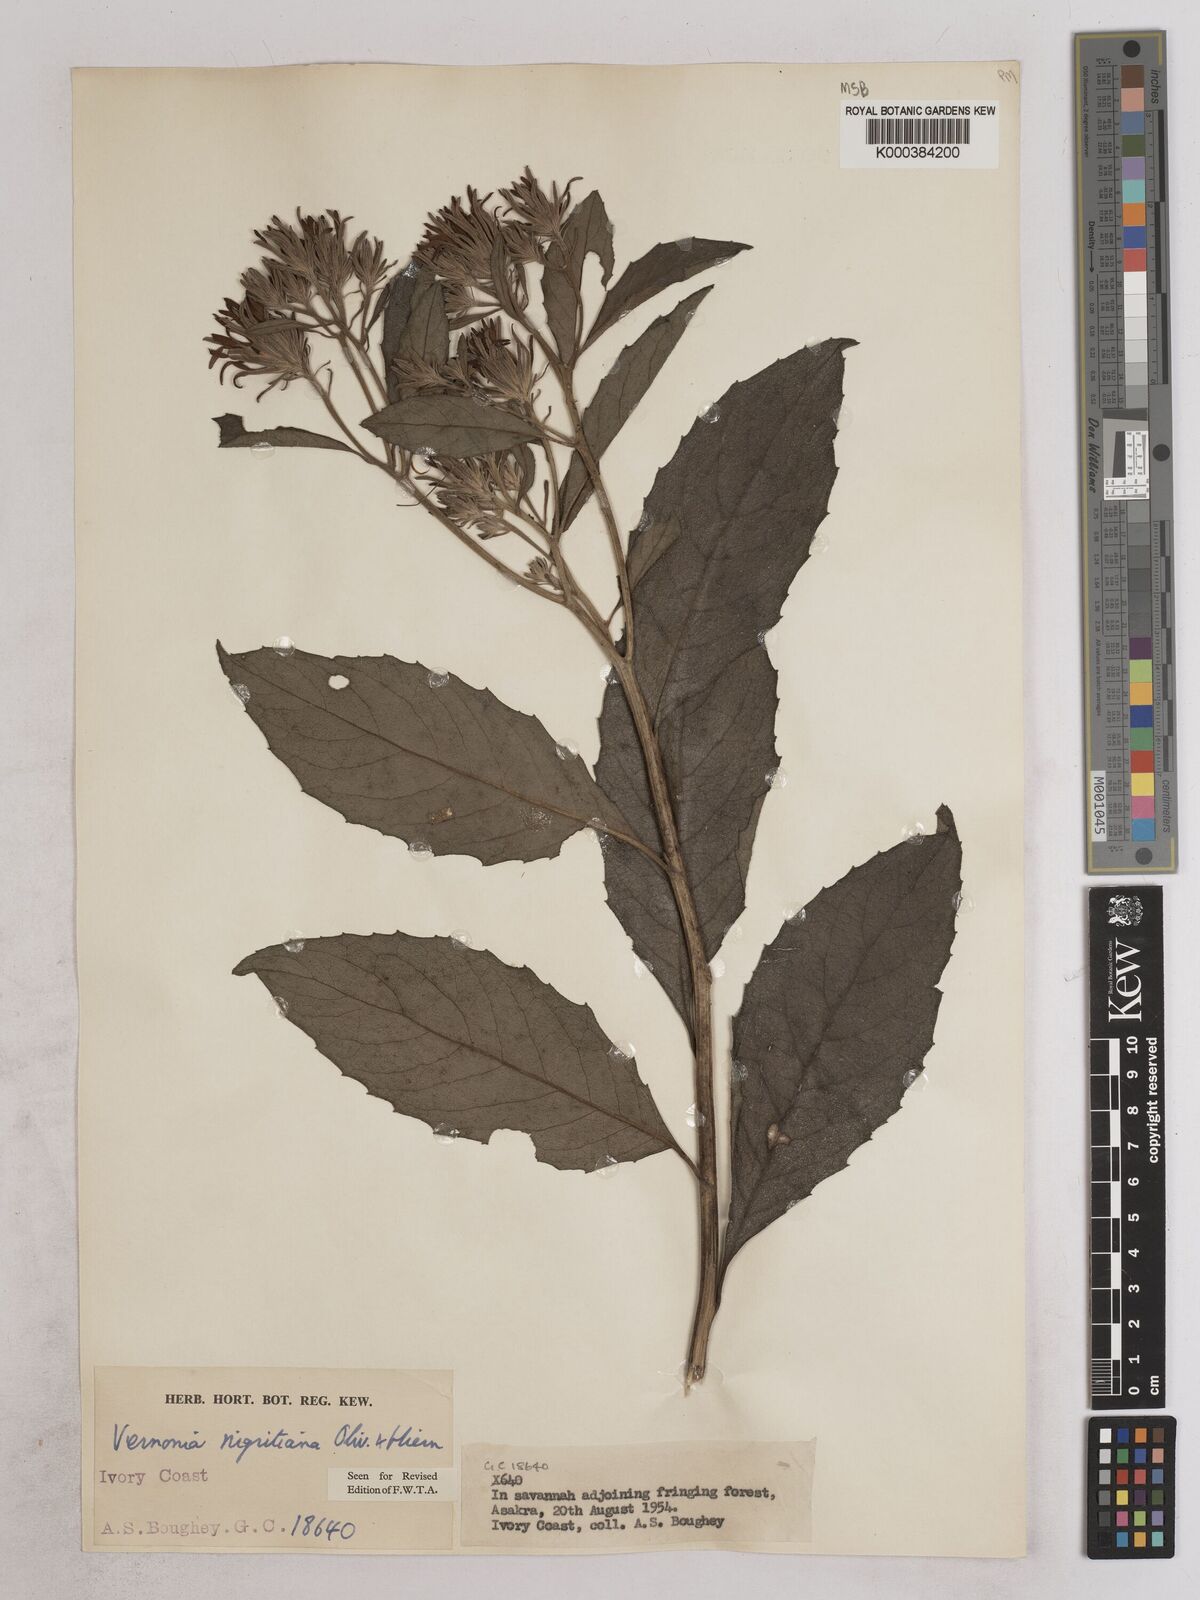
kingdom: Plantae
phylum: Tracheophyta
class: Magnoliopsida
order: Asterales
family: Asteraceae
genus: Linzia
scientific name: Linzia nigritiana
